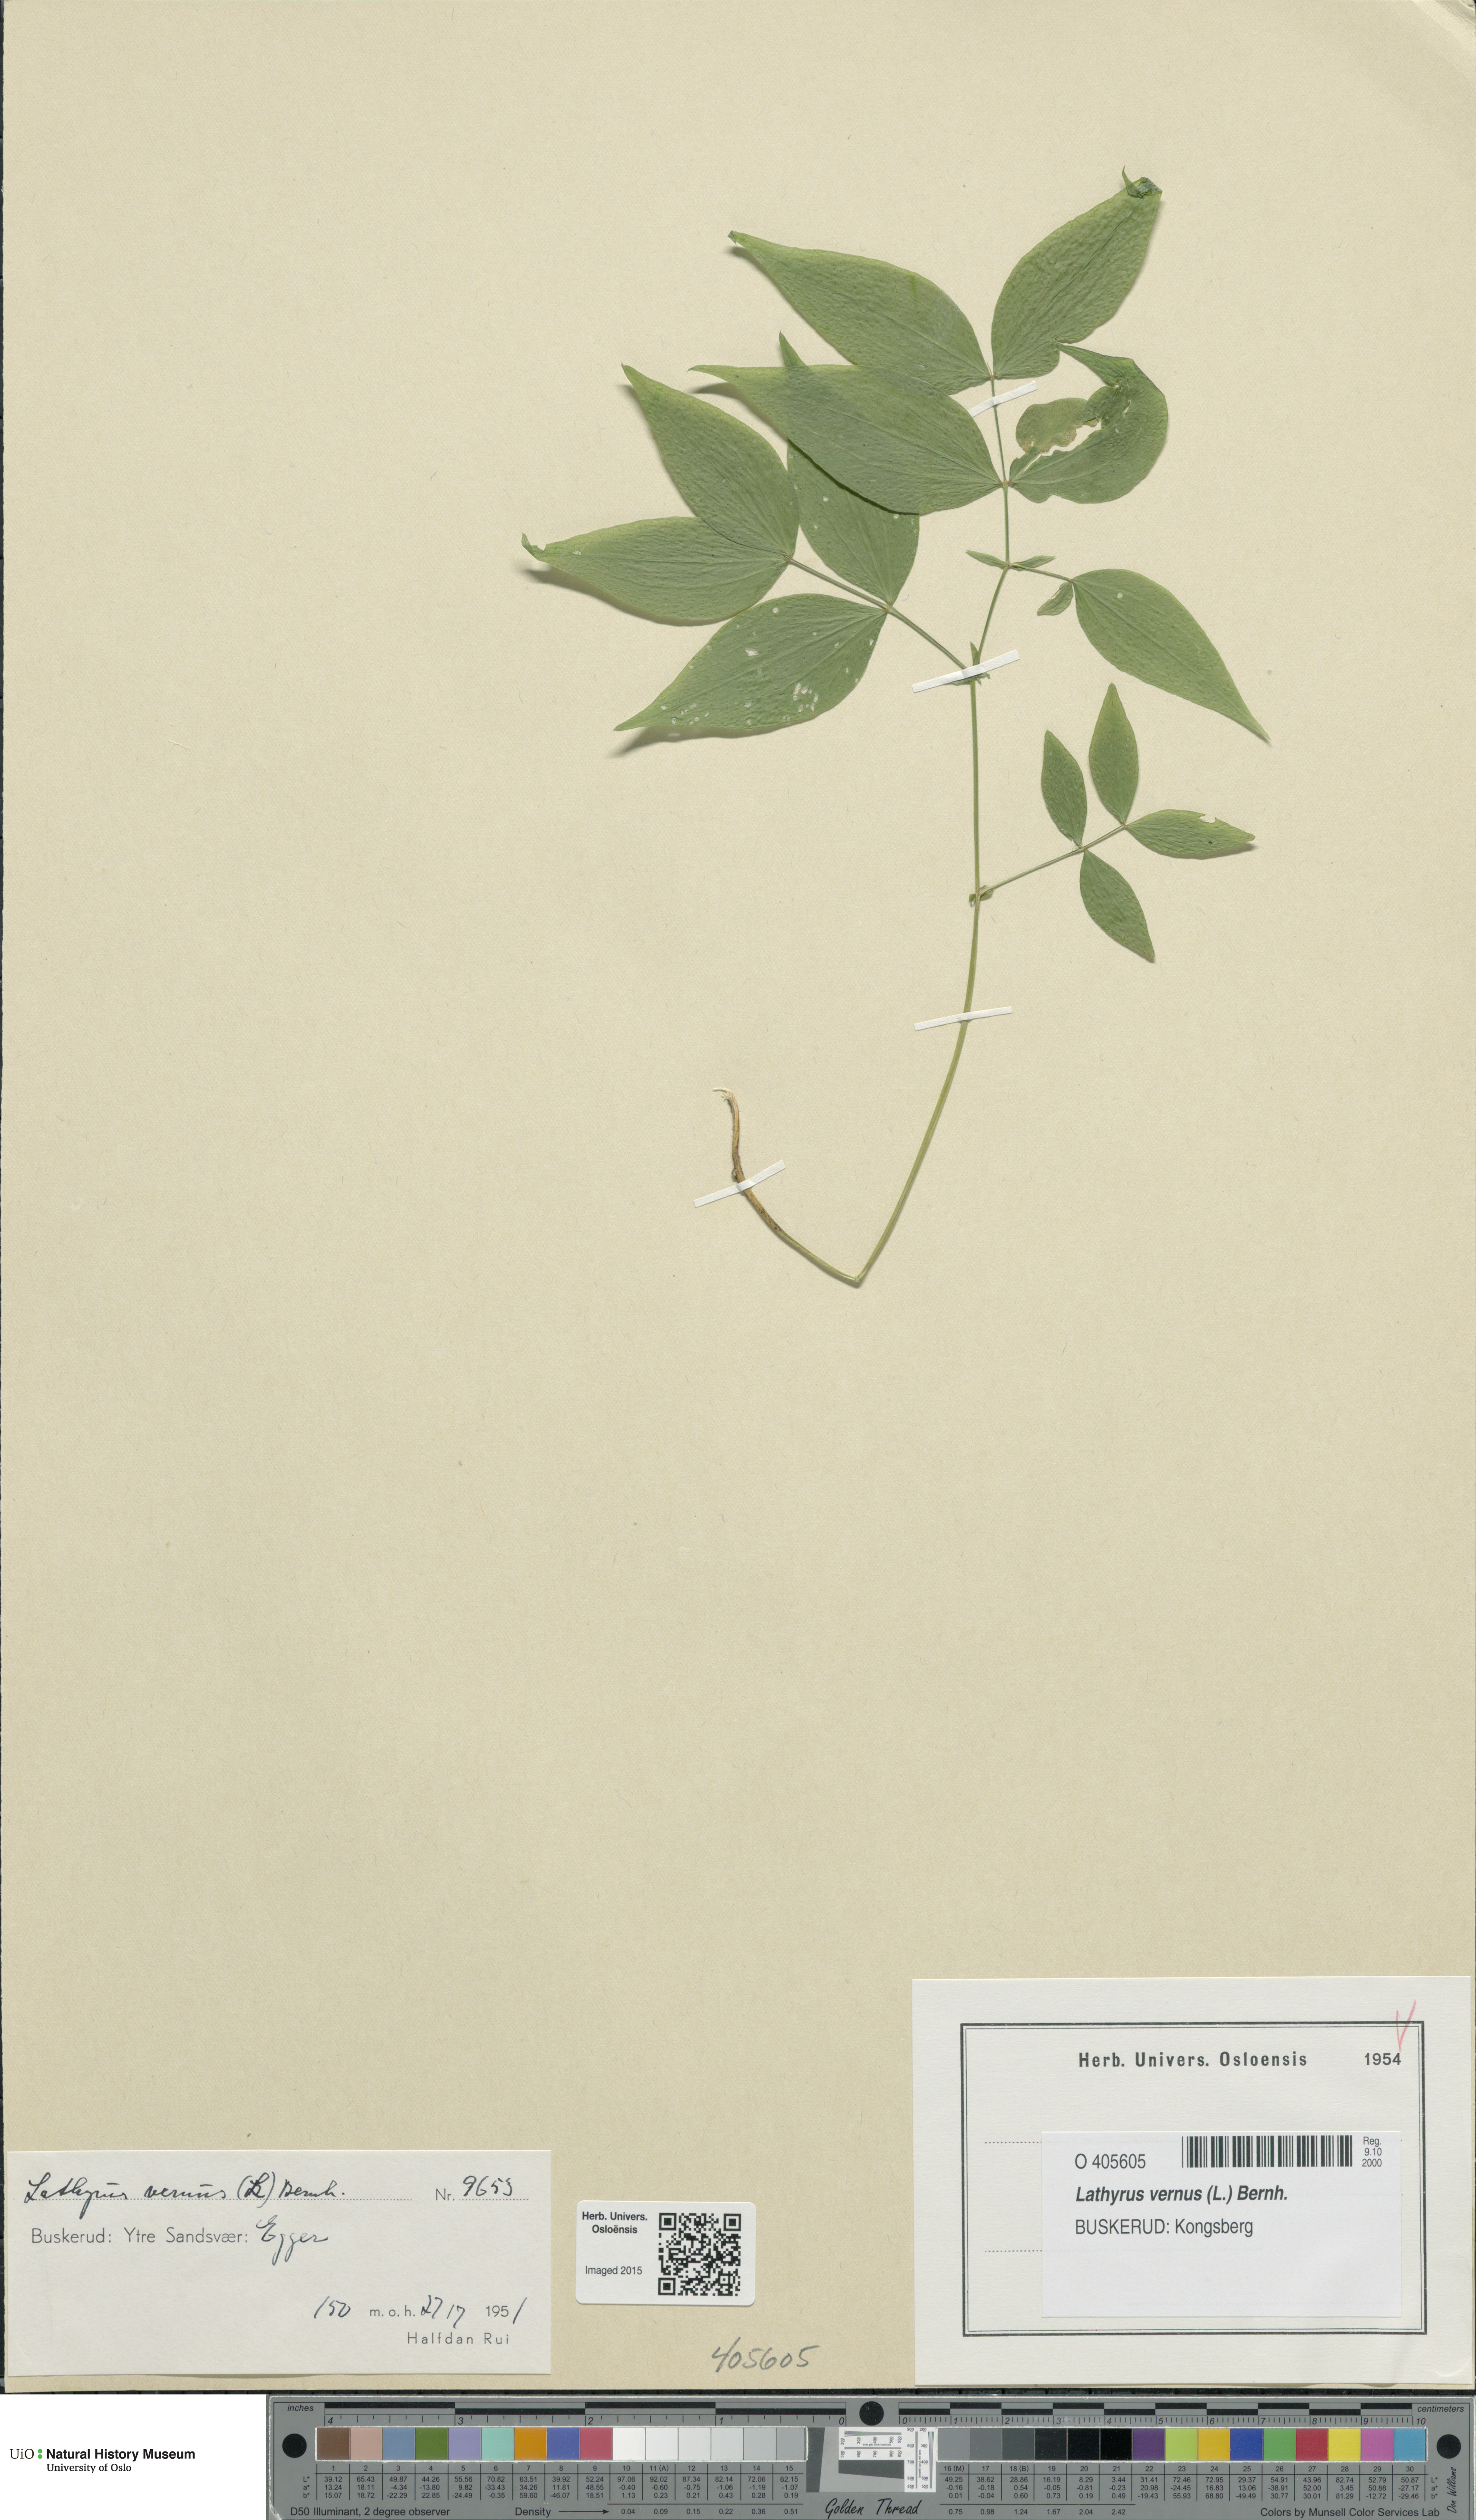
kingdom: Plantae
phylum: Tracheophyta
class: Magnoliopsida
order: Fabales
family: Fabaceae
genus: Lathyrus
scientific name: Lathyrus vernus
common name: Spring pea
